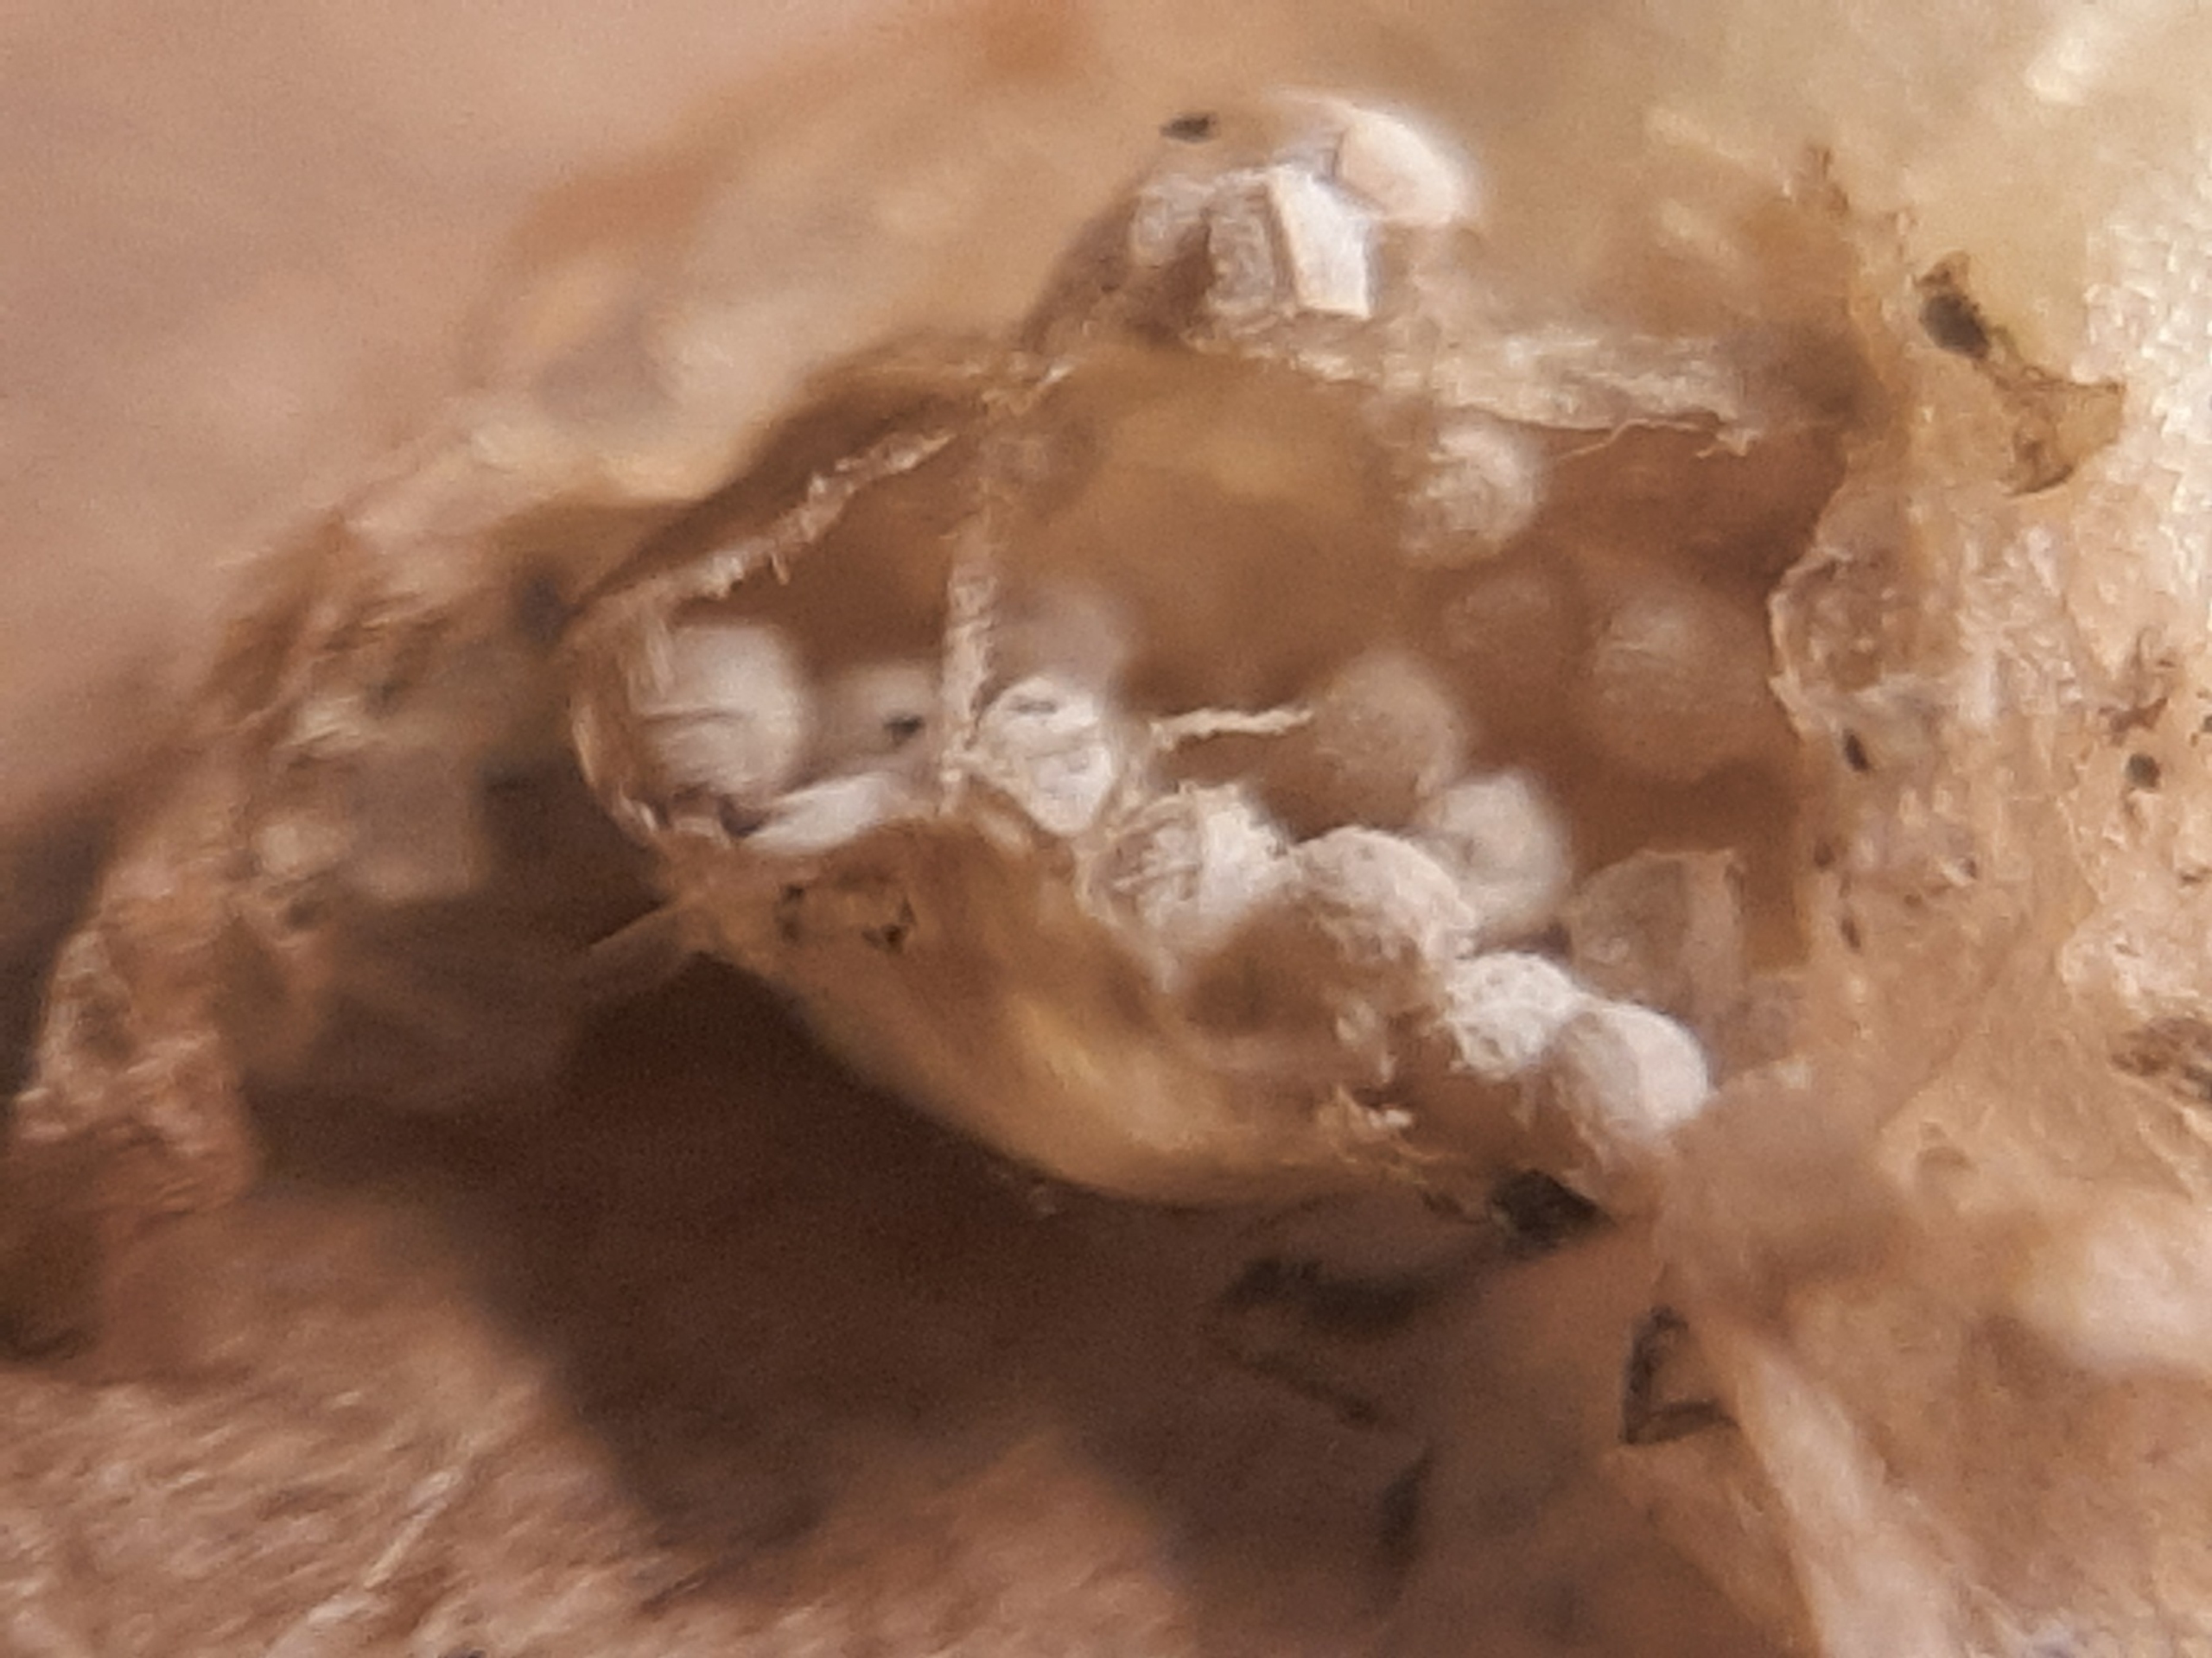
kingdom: Plantae
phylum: Tracheophyta
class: Lycopodiopsida
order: Isoetales
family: Isoetaceae
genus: Isoetes
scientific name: Isoetes lacustris
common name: Sortgrøn brasenføde
